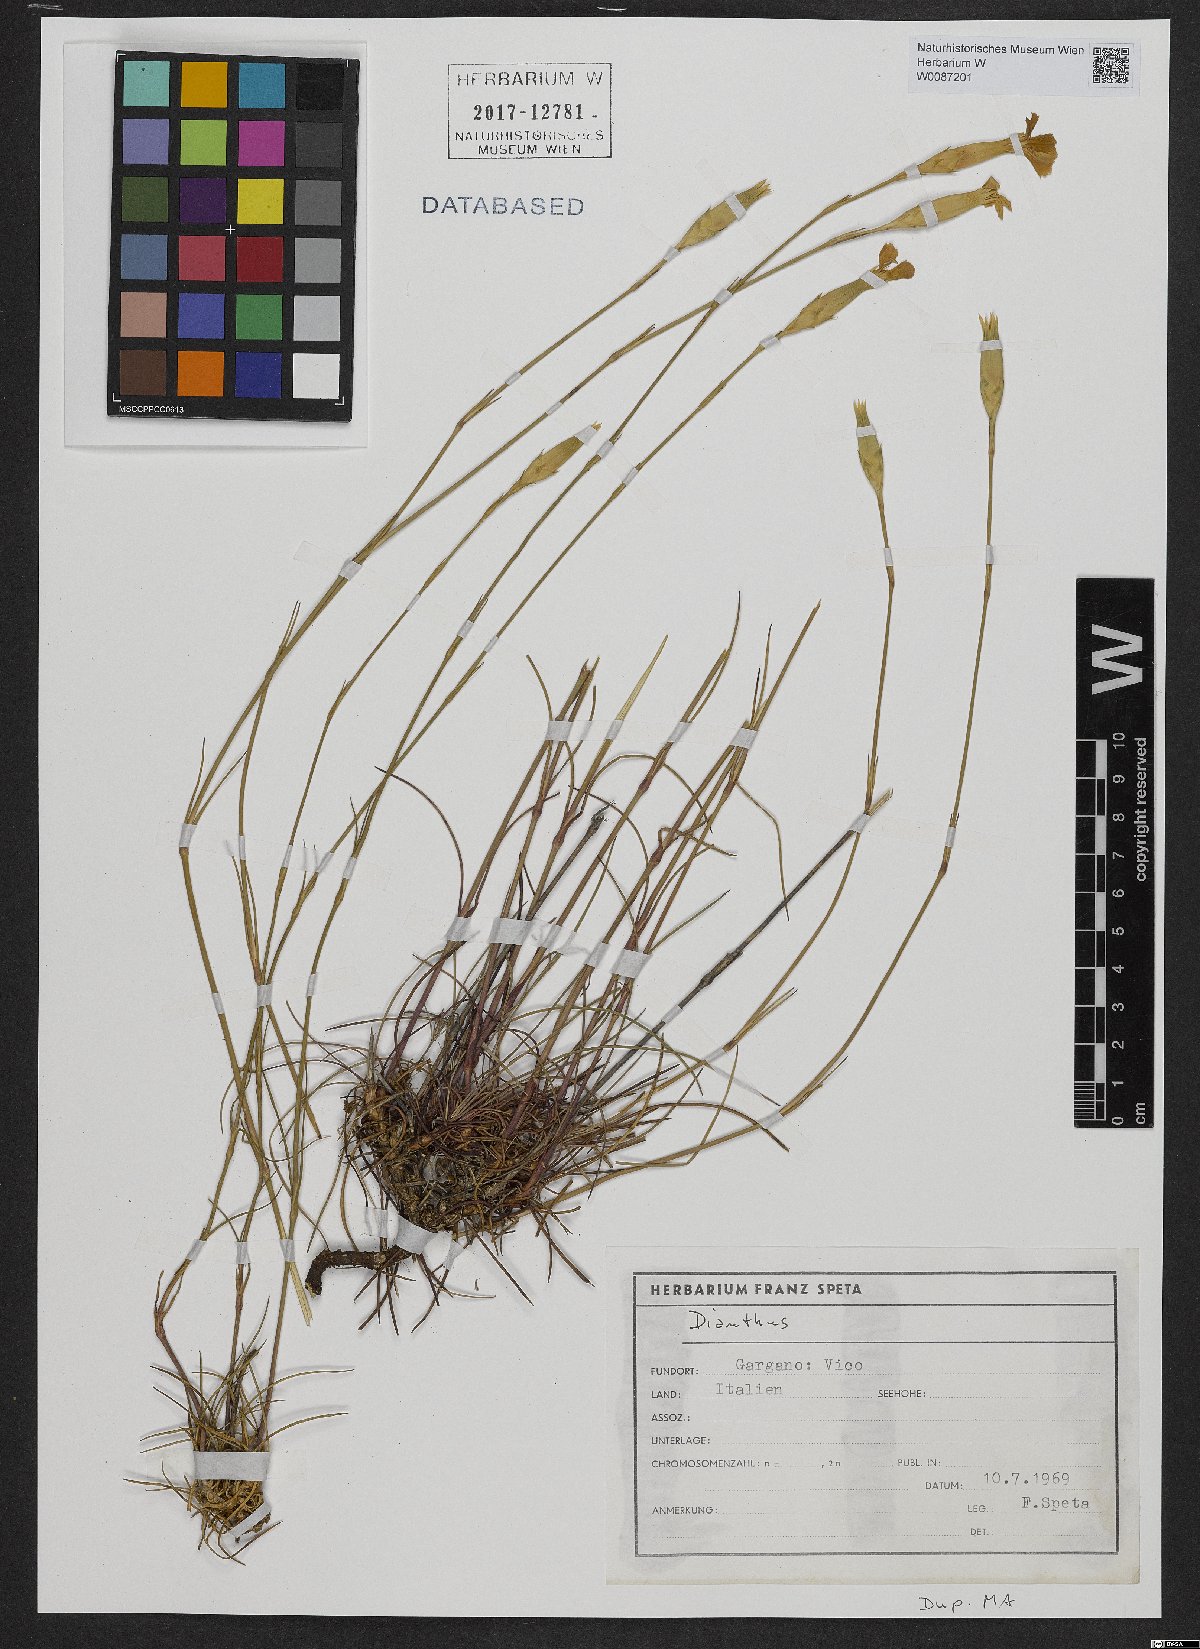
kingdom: Plantae
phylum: Tracheophyta
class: Magnoliopsida
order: Caryophyllales
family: Caryophyllaceae
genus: Dianthus
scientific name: Dianthus
